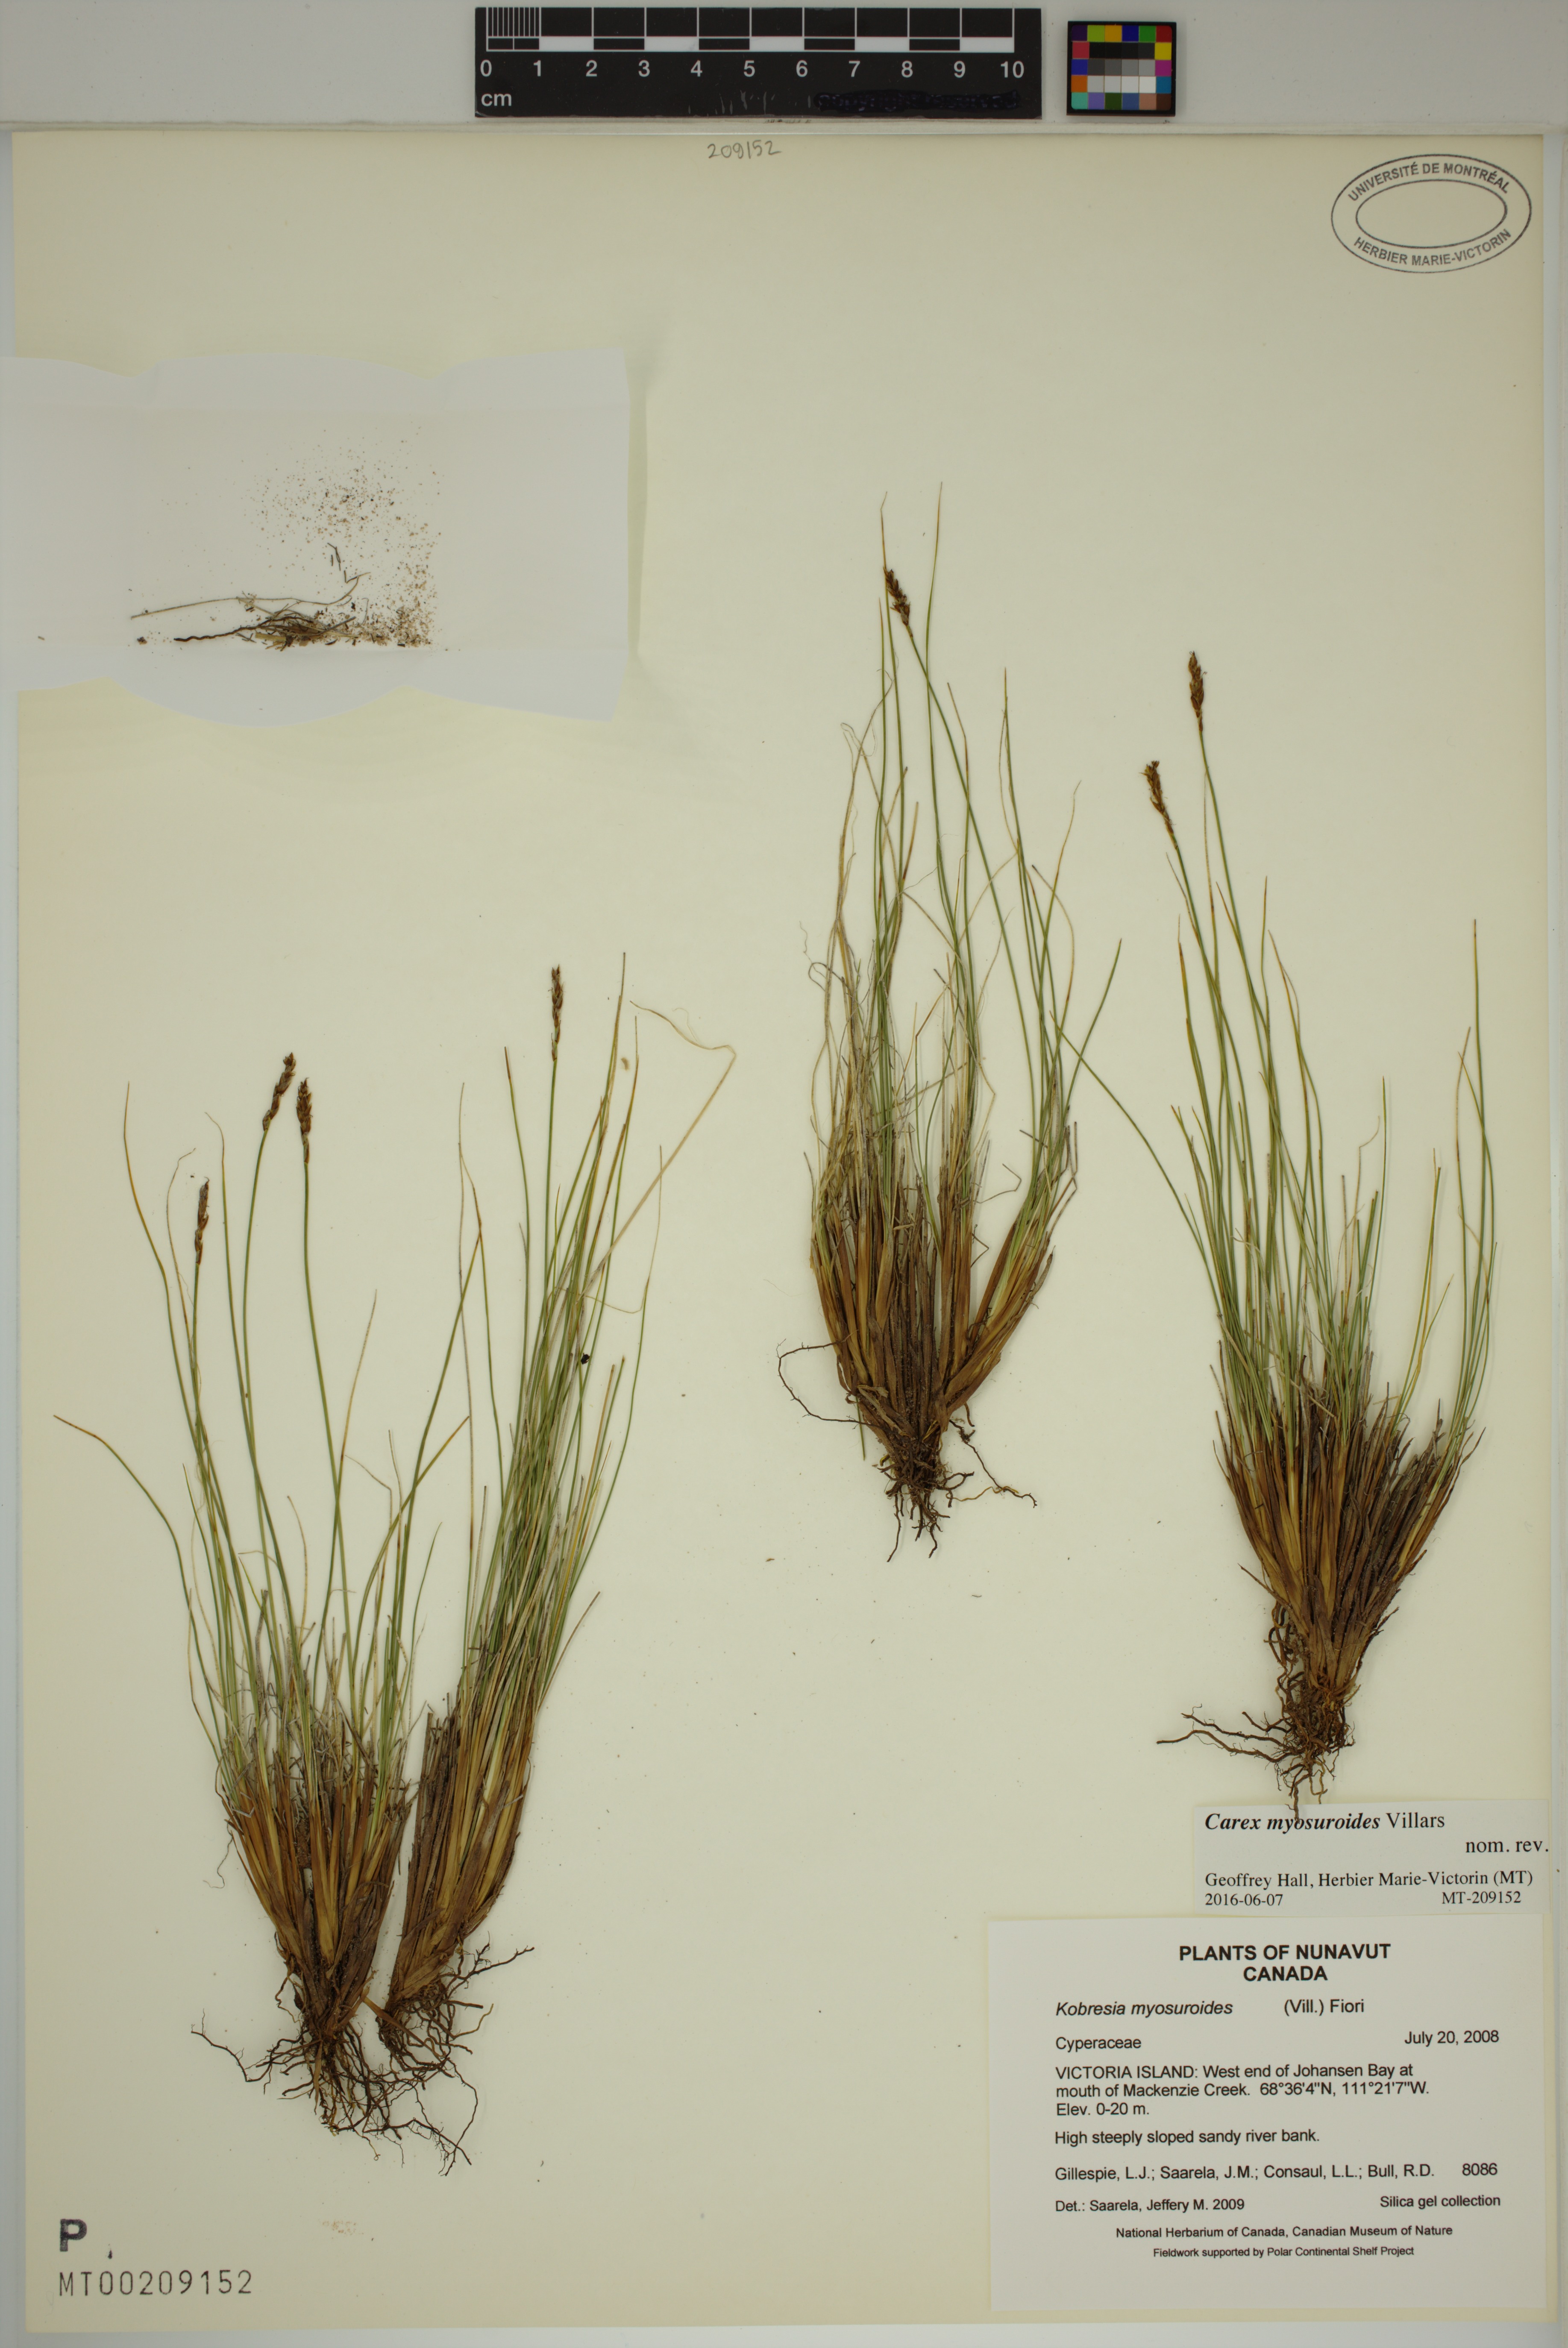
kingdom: Plantae
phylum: Tracheophyta
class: Liliopsida
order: Poales
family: Cyperaceae
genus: Carex
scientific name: Carex myosuroides
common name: Bellard's bog sedge
